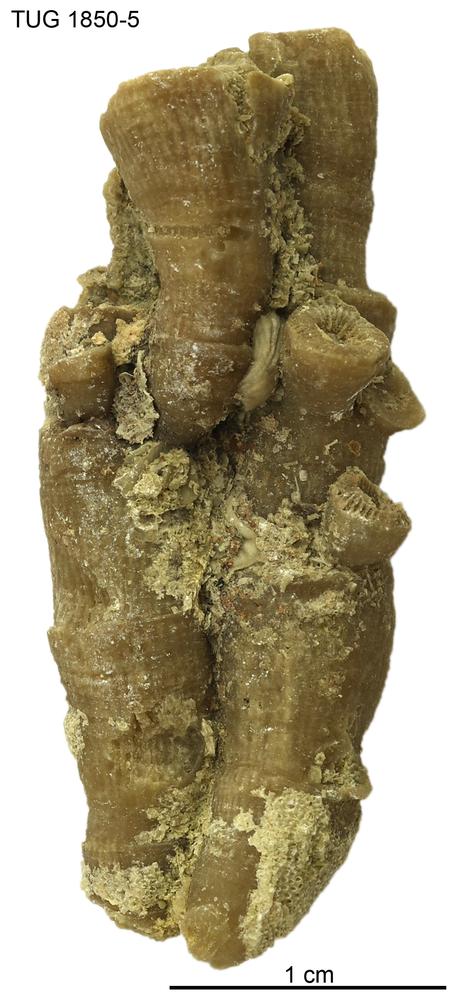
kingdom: Animalia
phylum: Cnidaria
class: Anthozoa
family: Entelophyllidae
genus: Entelophyllum
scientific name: Entelophyllum
